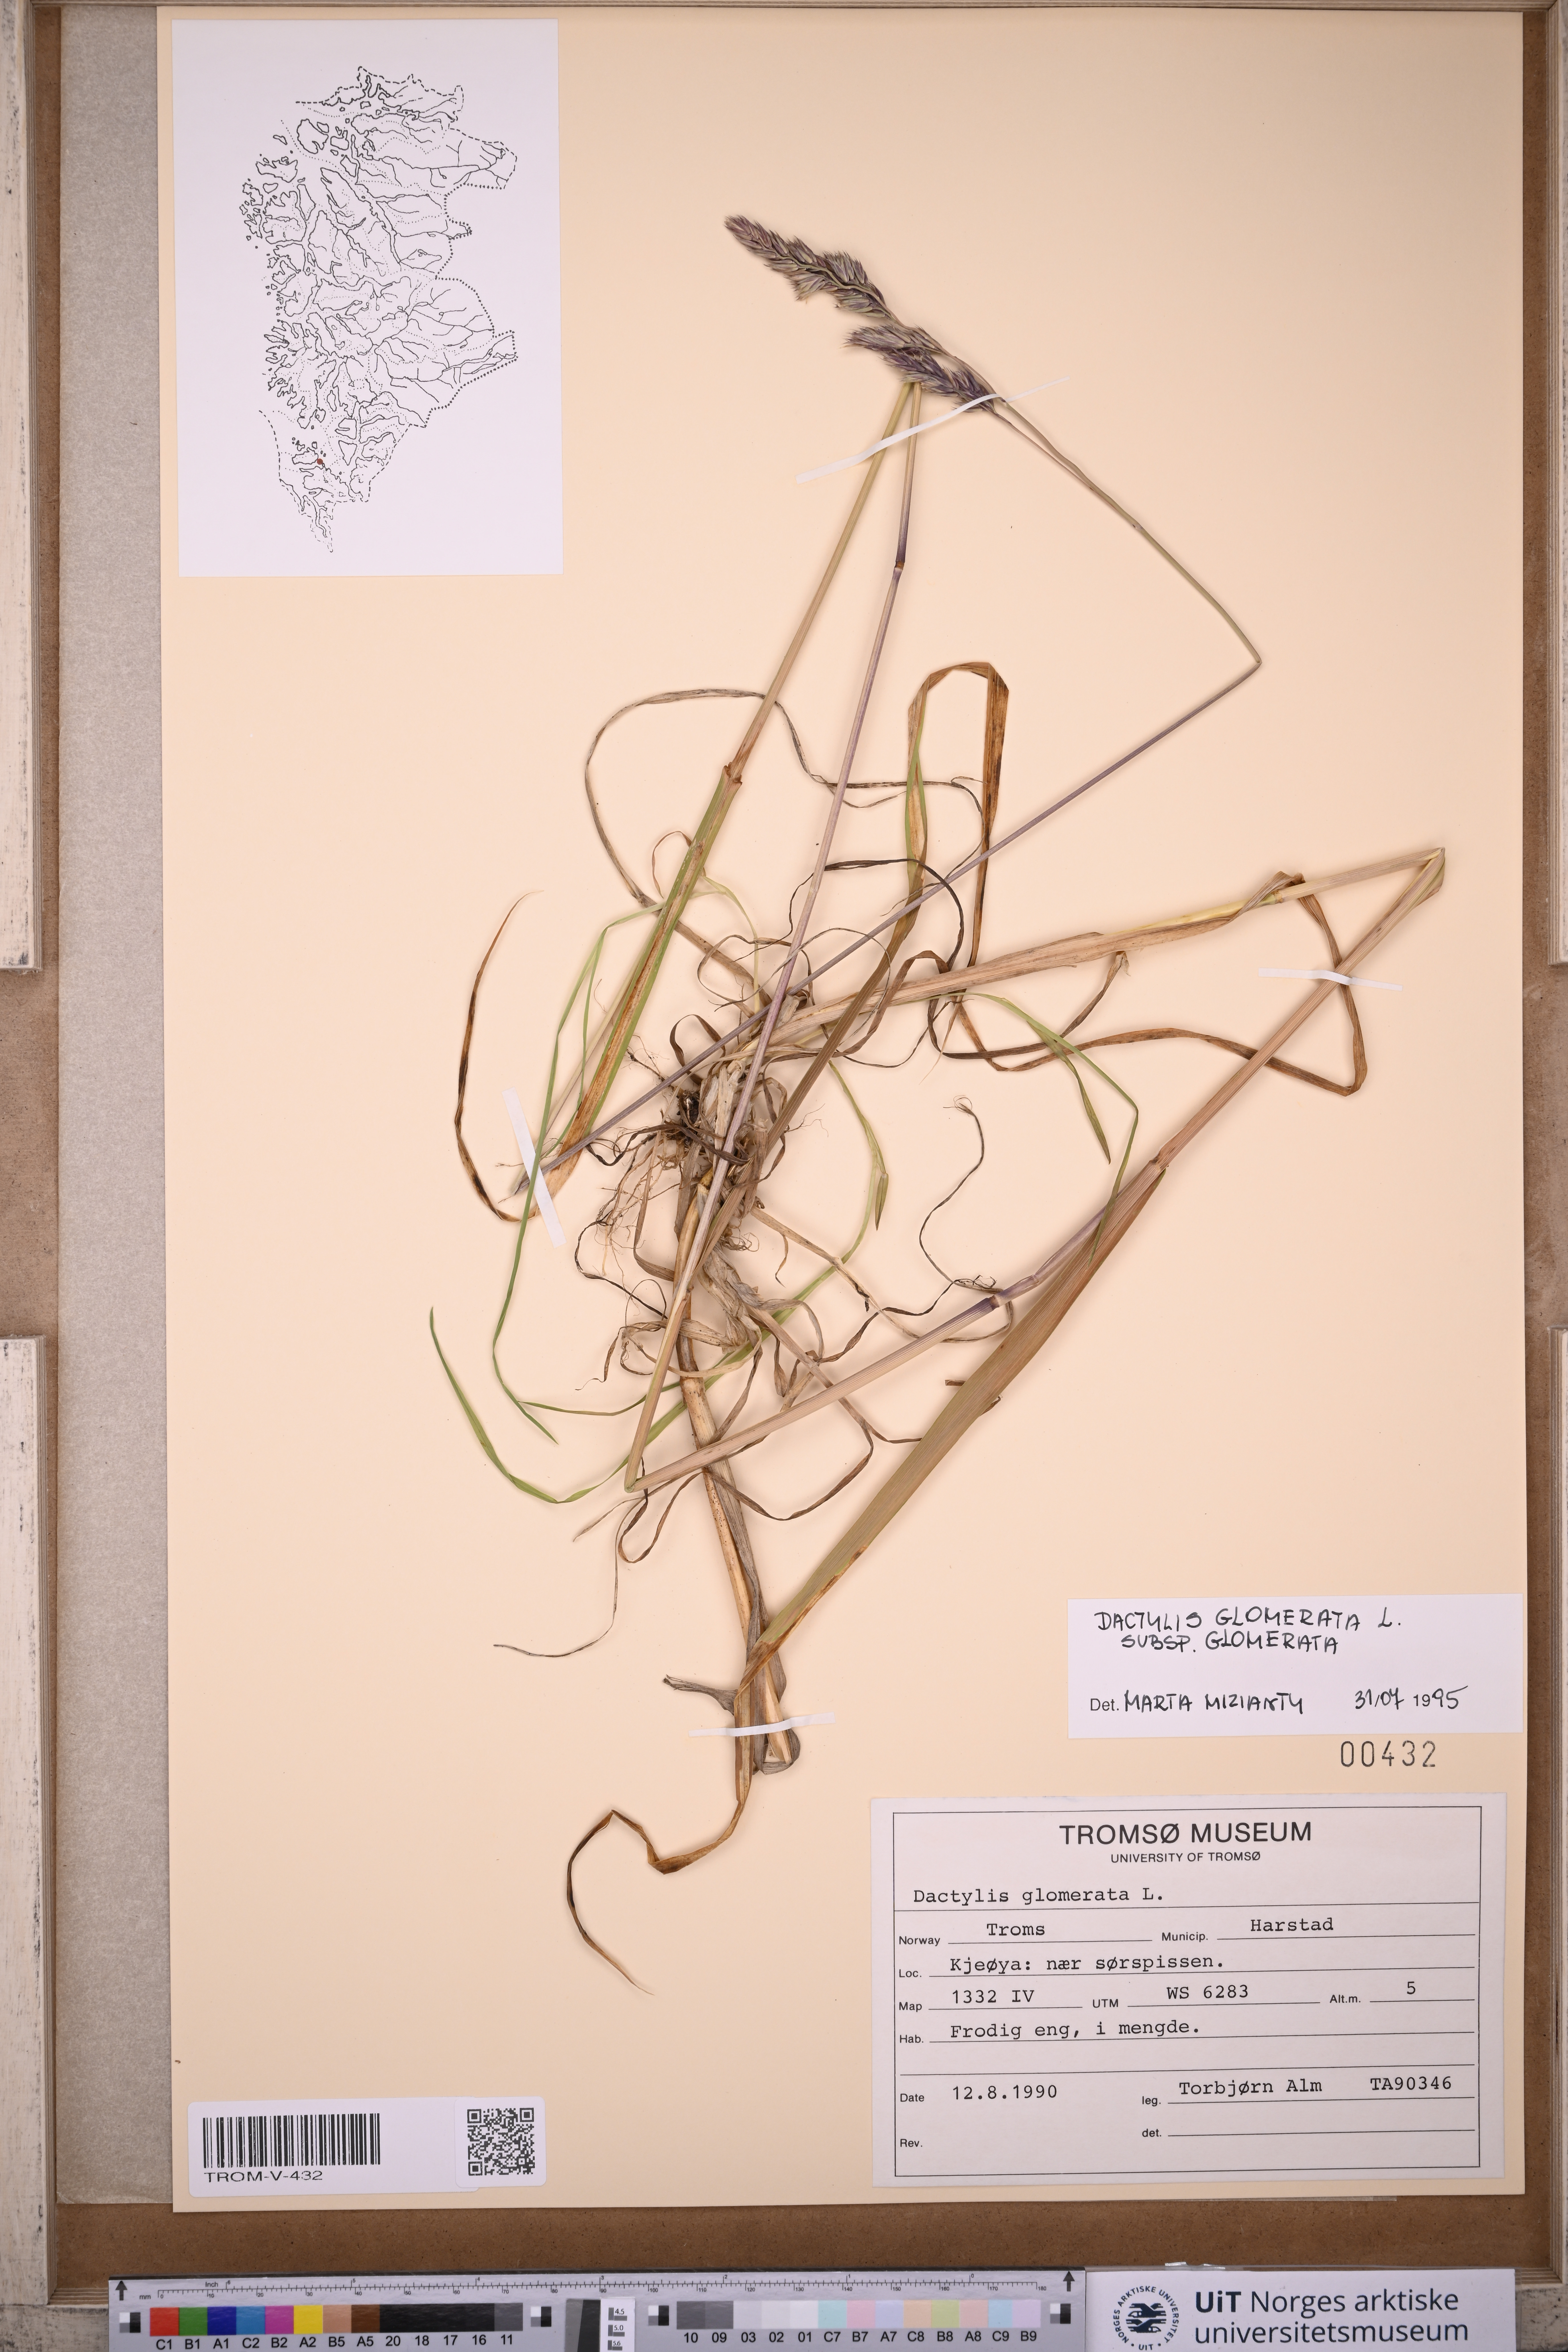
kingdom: Plantae
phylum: Tracheophyta
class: Liliopsida
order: Poales
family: Poaceae
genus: Dactylis
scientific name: Dactylis glomerata
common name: Orchardgrass
